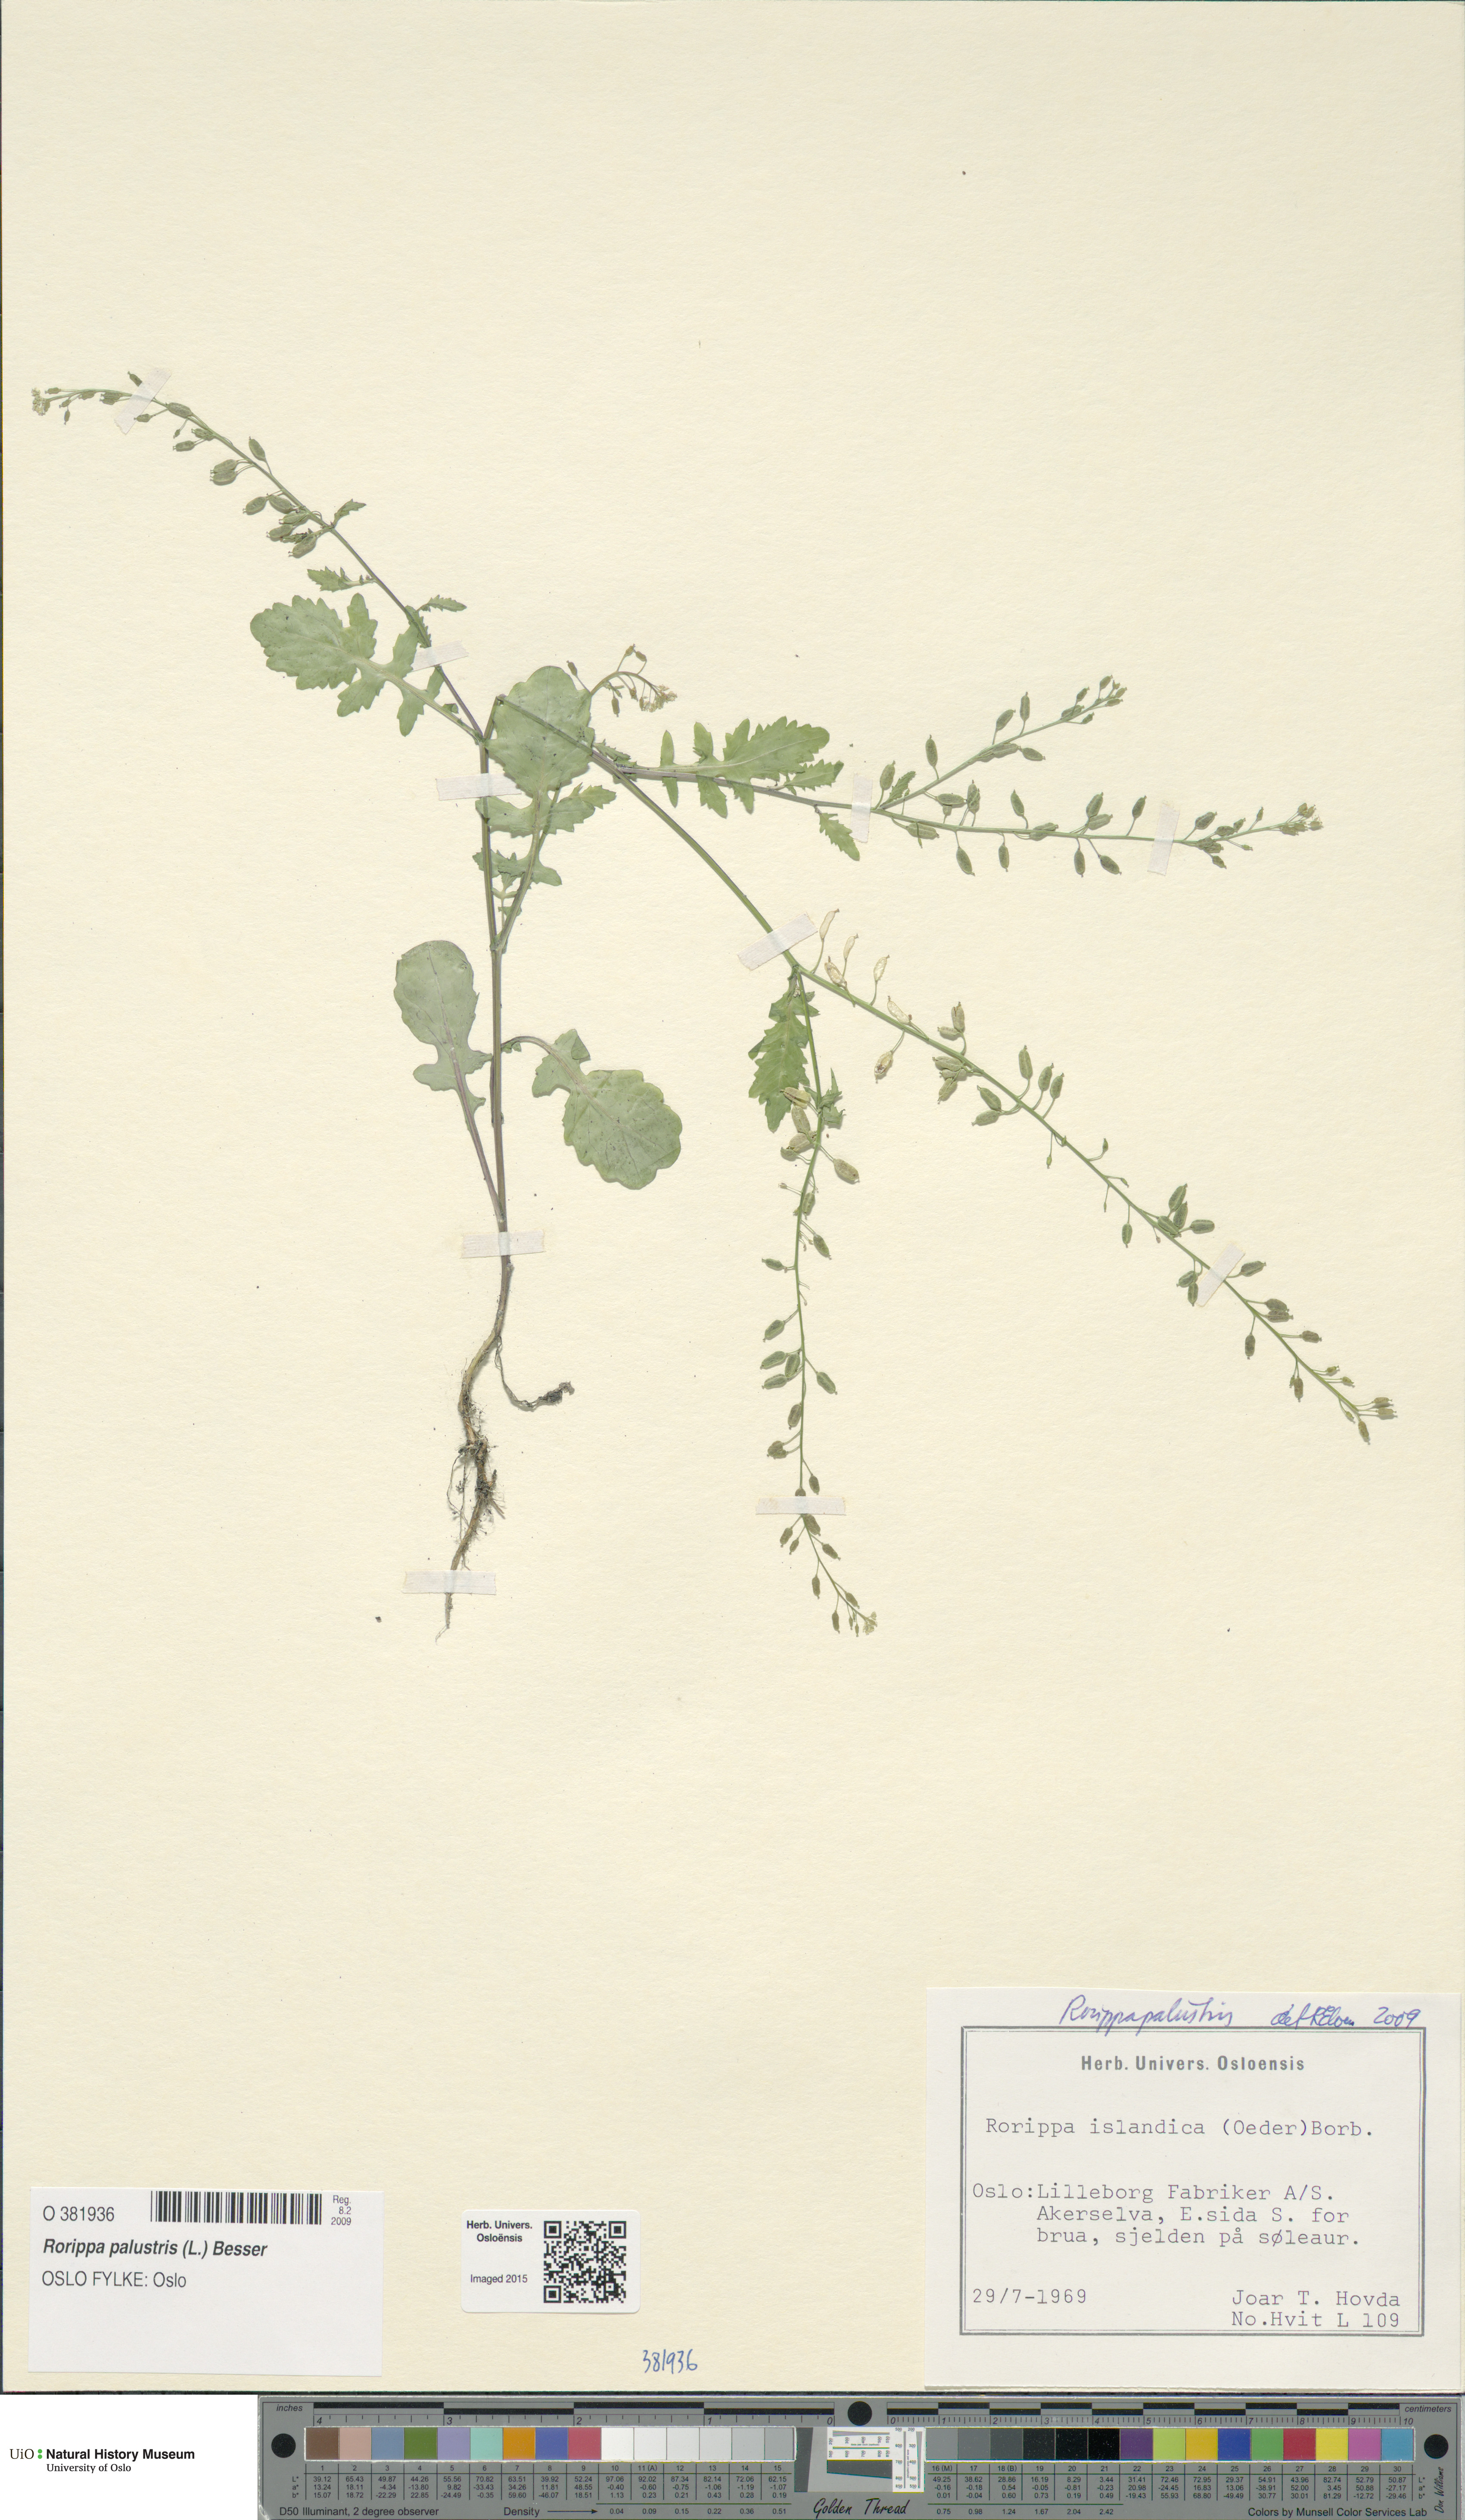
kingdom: Plantae
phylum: Tracheophyta
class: Magnoliopsida
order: Brassicales
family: Brassicaceae
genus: Rorippa
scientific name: Rorippa palustris
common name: Marsh yellow-cress
